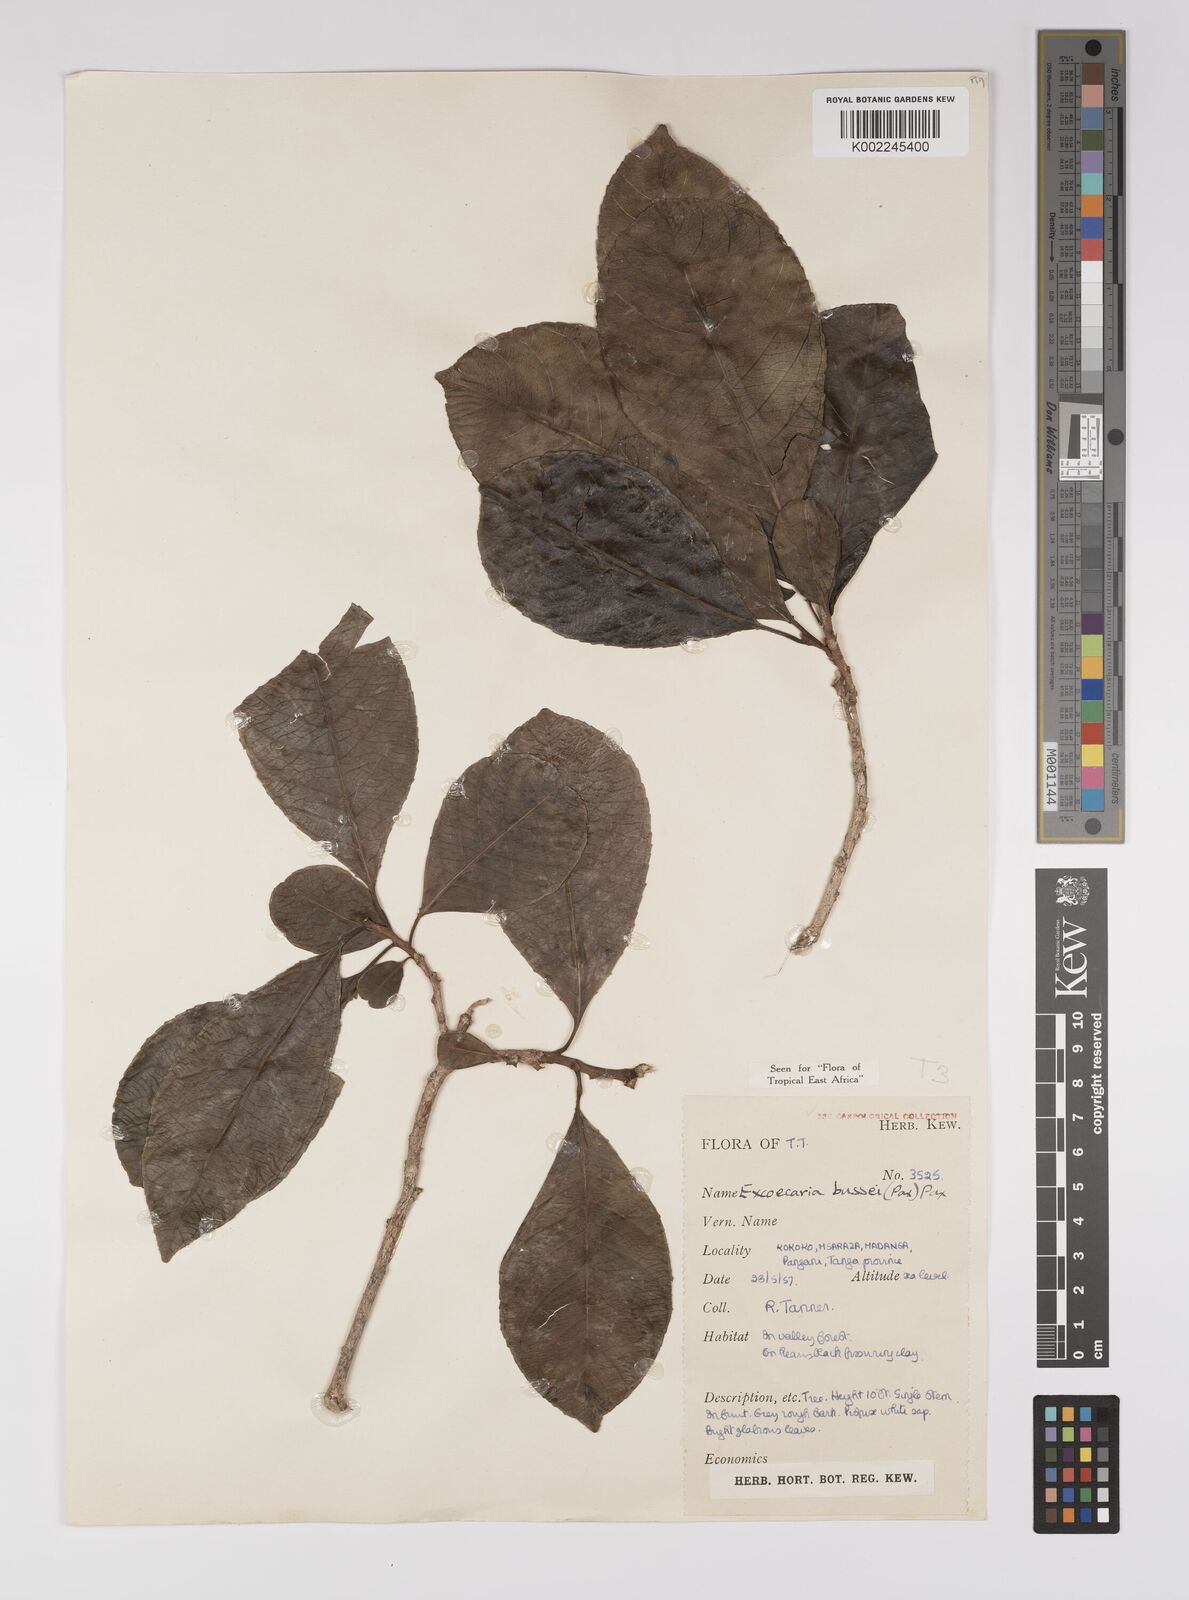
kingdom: Plantae
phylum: Tracheophyta
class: Magnoliopsida
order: Malpighiales
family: Euphorbiaceae
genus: Excoecaria
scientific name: Excoecaria bussei
